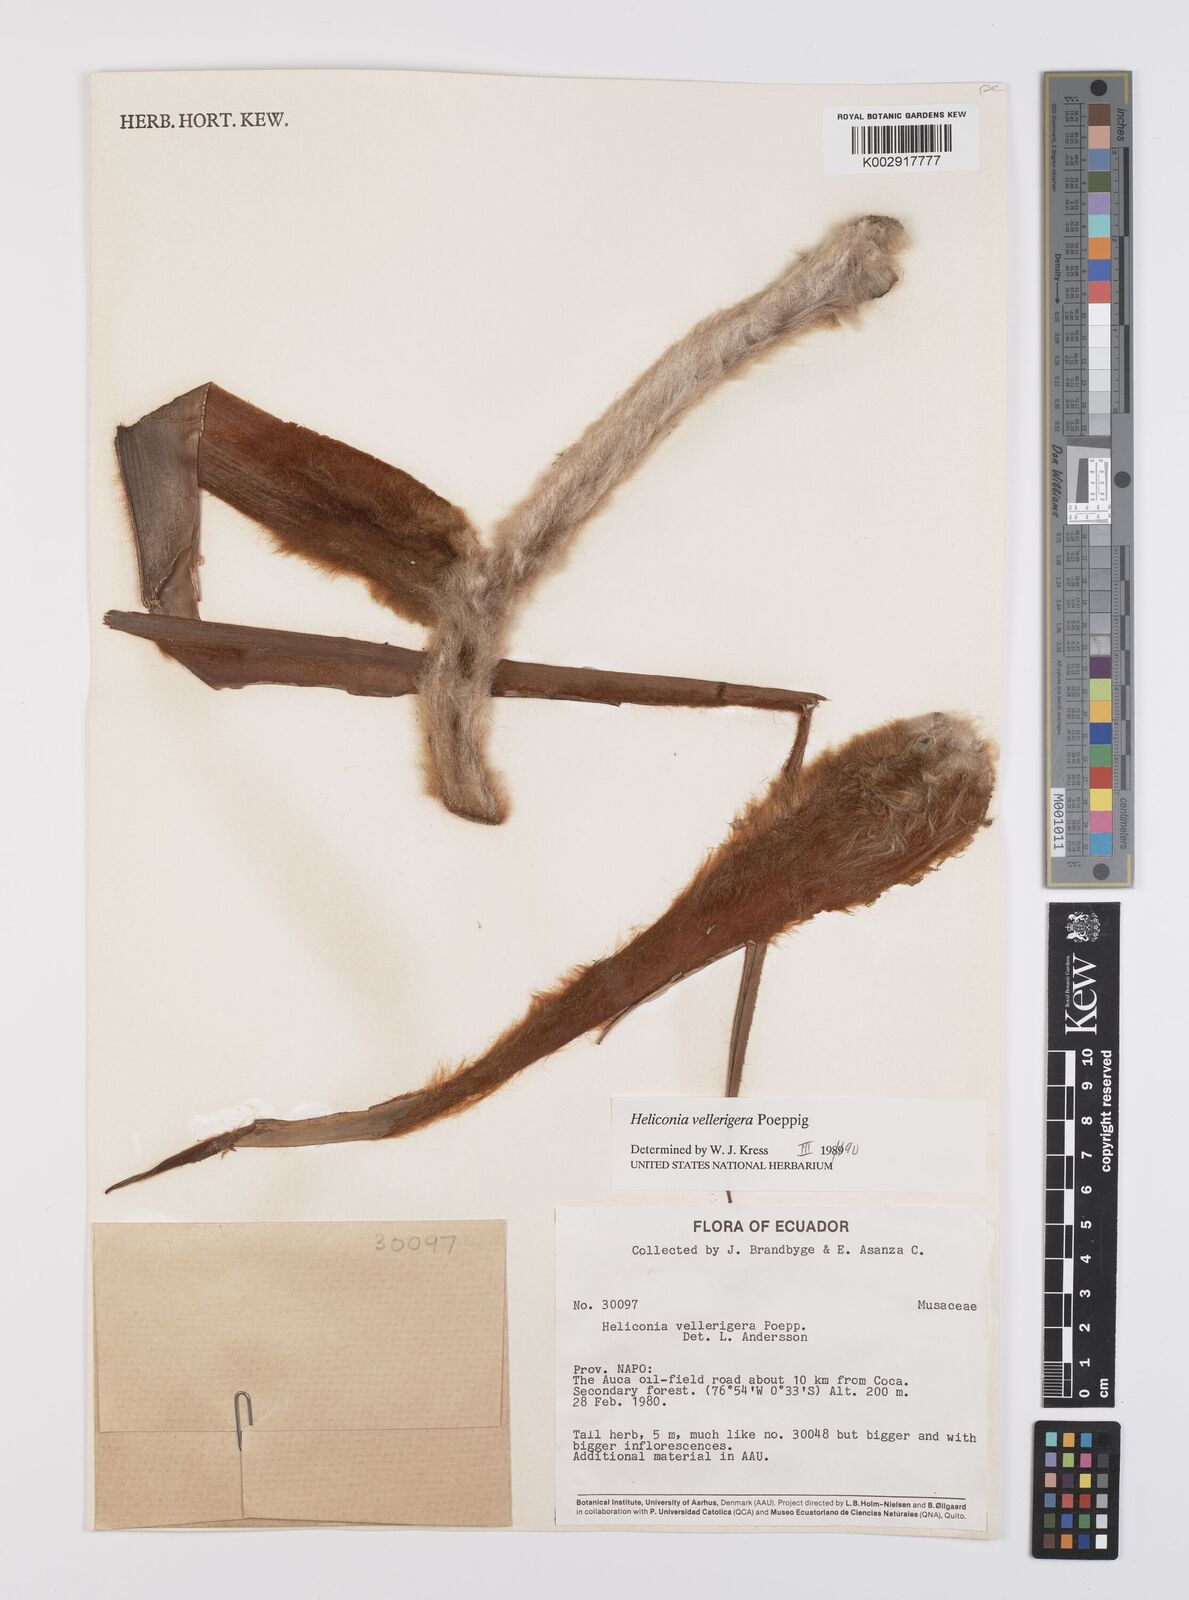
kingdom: Plantae
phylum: Tracheophyta
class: Liliopsida
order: Zingiberales
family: Heliconiaceae
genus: Heliconia
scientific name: Heliconia vellerigera
